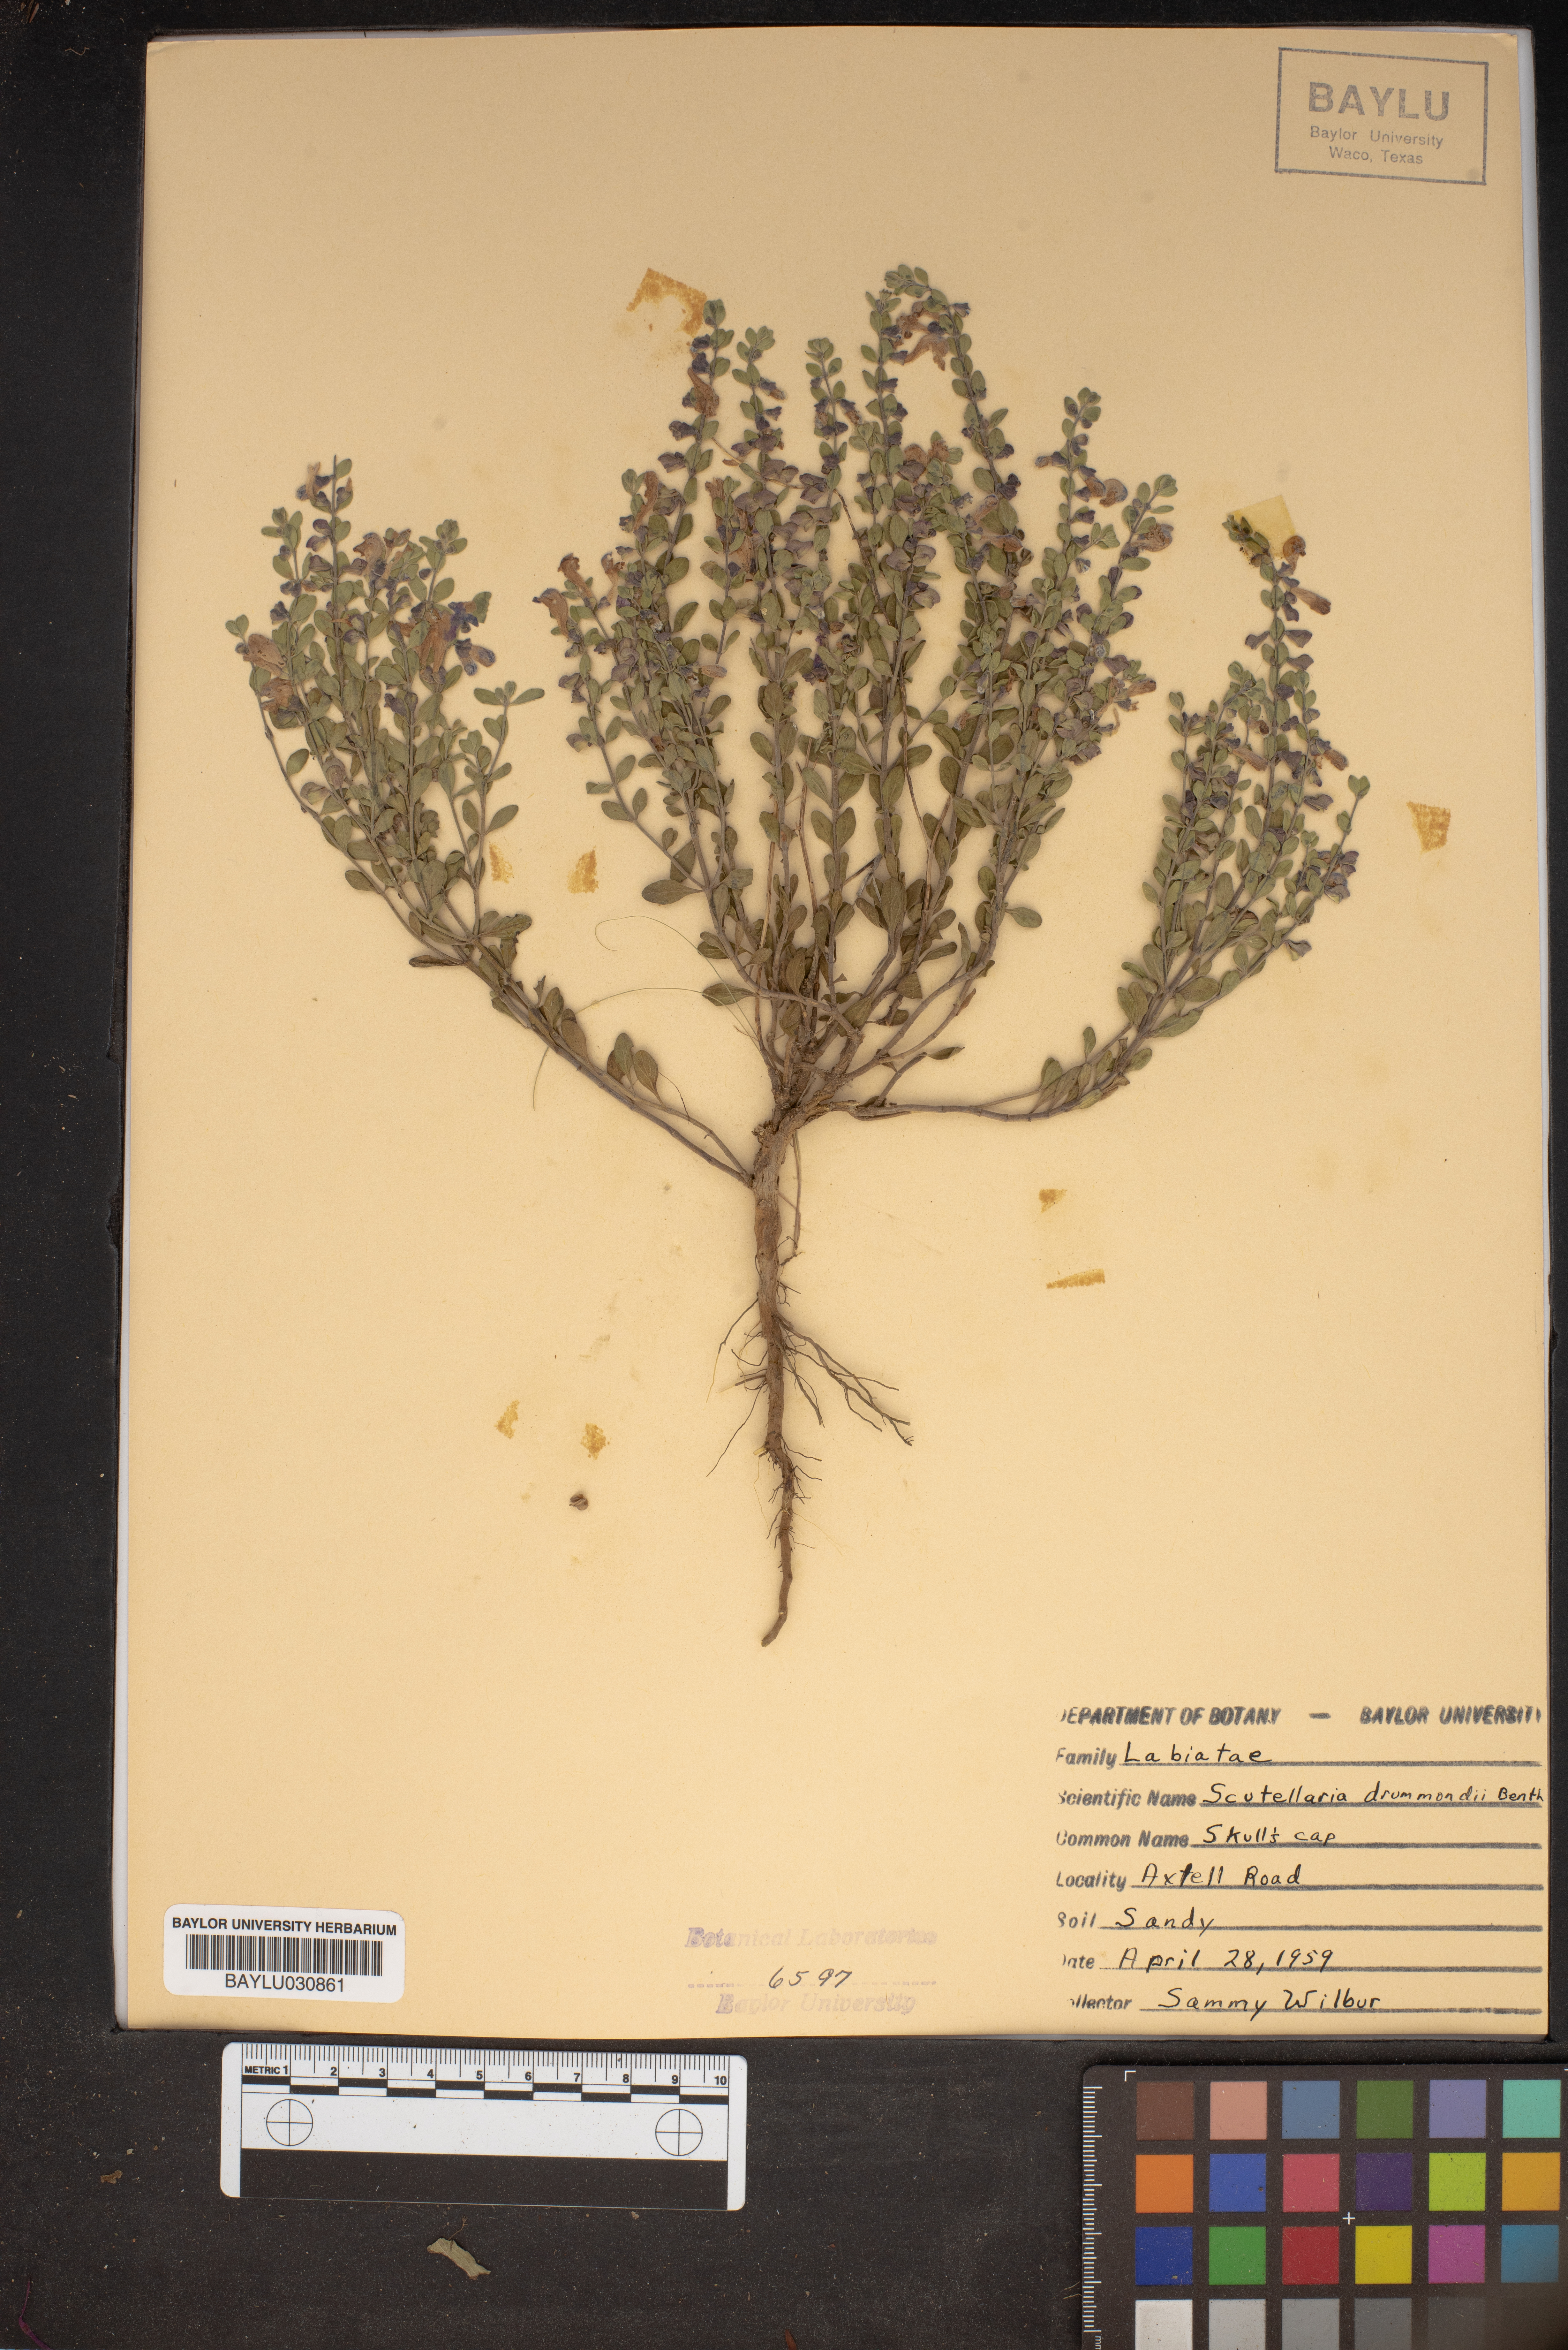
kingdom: Plantae
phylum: Tracheophyta
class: Magnoliopsida
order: Lamiales
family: Lamiaceae
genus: Scutellaria
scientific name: Scutellaria drummondii
